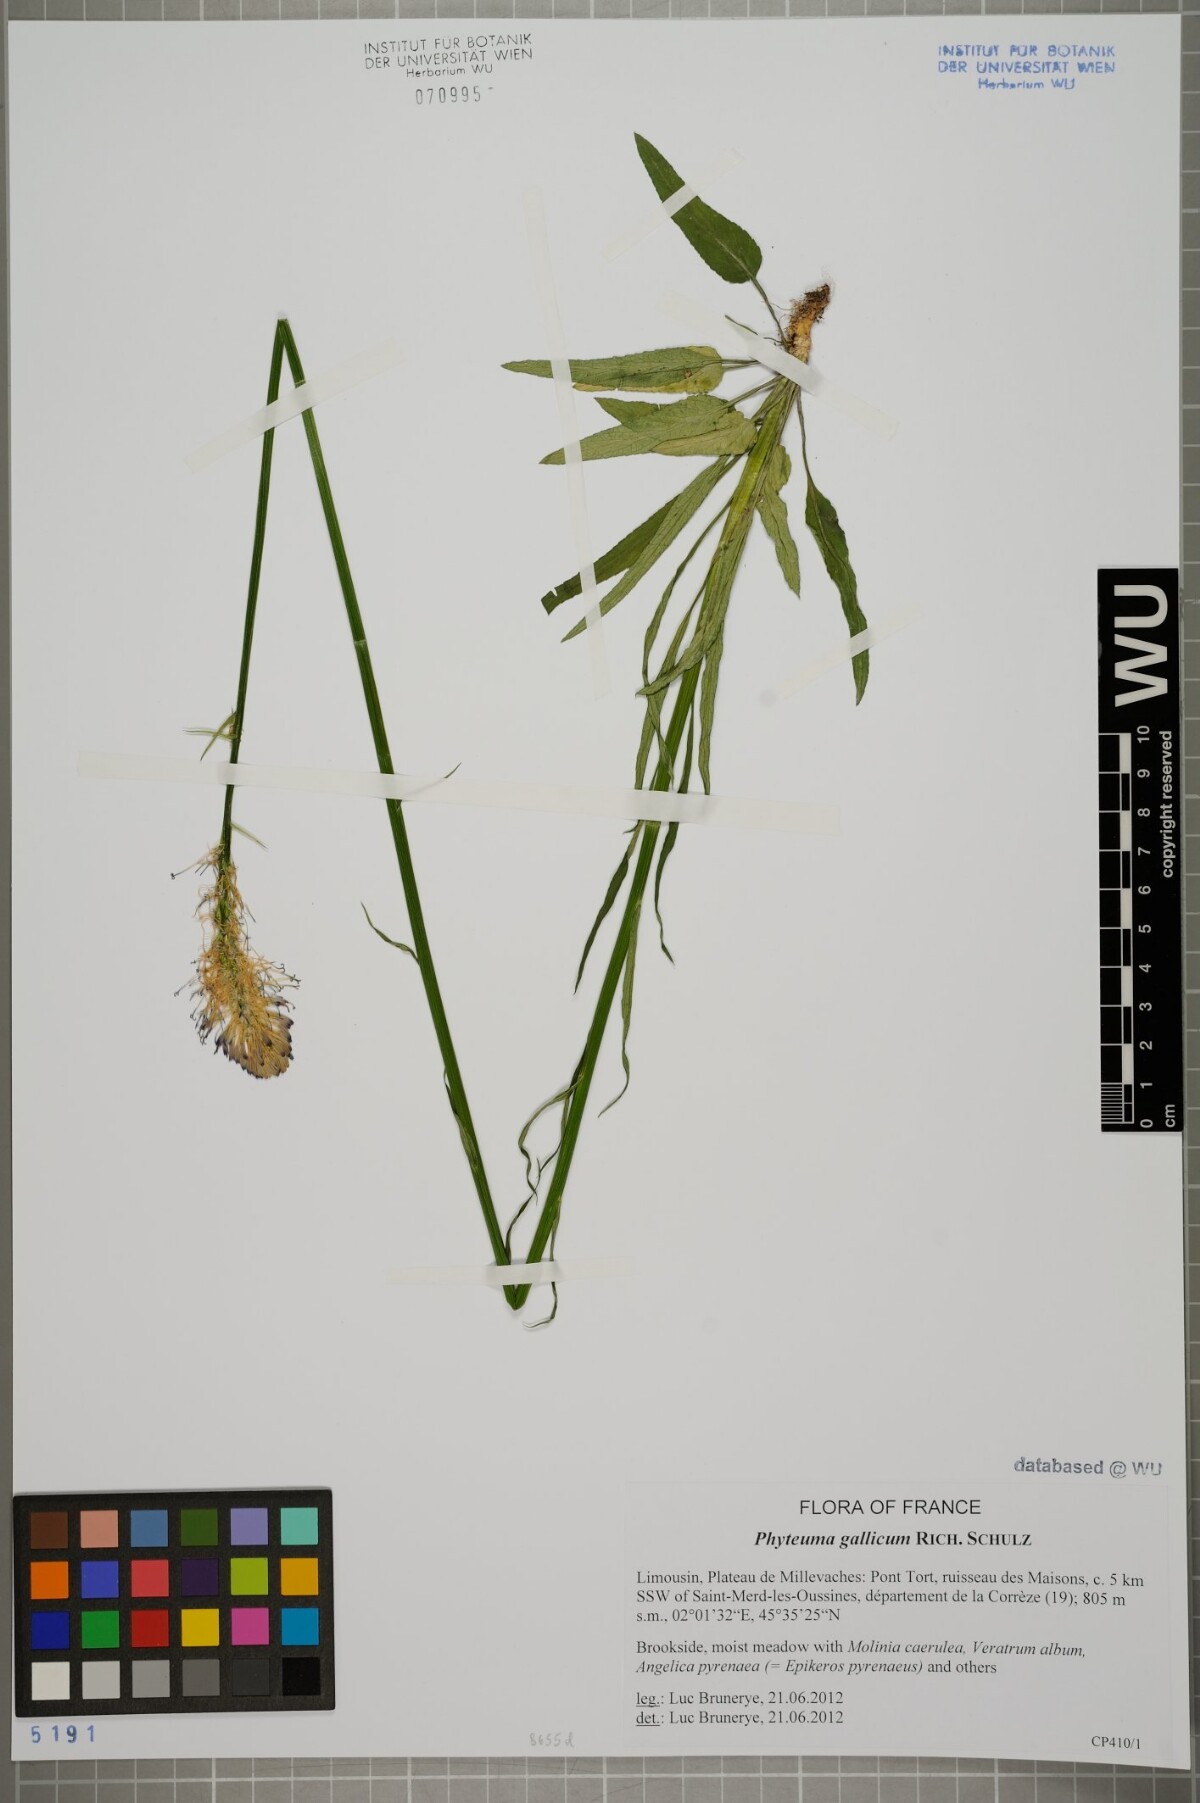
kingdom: Plantae
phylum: Tracheophyta
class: Magnoliopsida
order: Asterales
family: Campanulaceae
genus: Phyteuma
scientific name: Phyteuma gallicum
